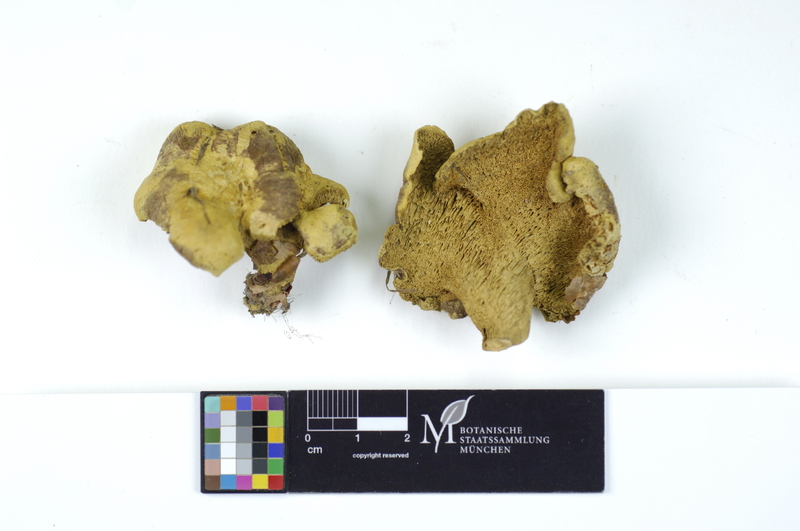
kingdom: Fungi
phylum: Basidiomycota
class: Agaricomycetes
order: Russulales
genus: Laeticutis
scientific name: Laeticutis cristata
